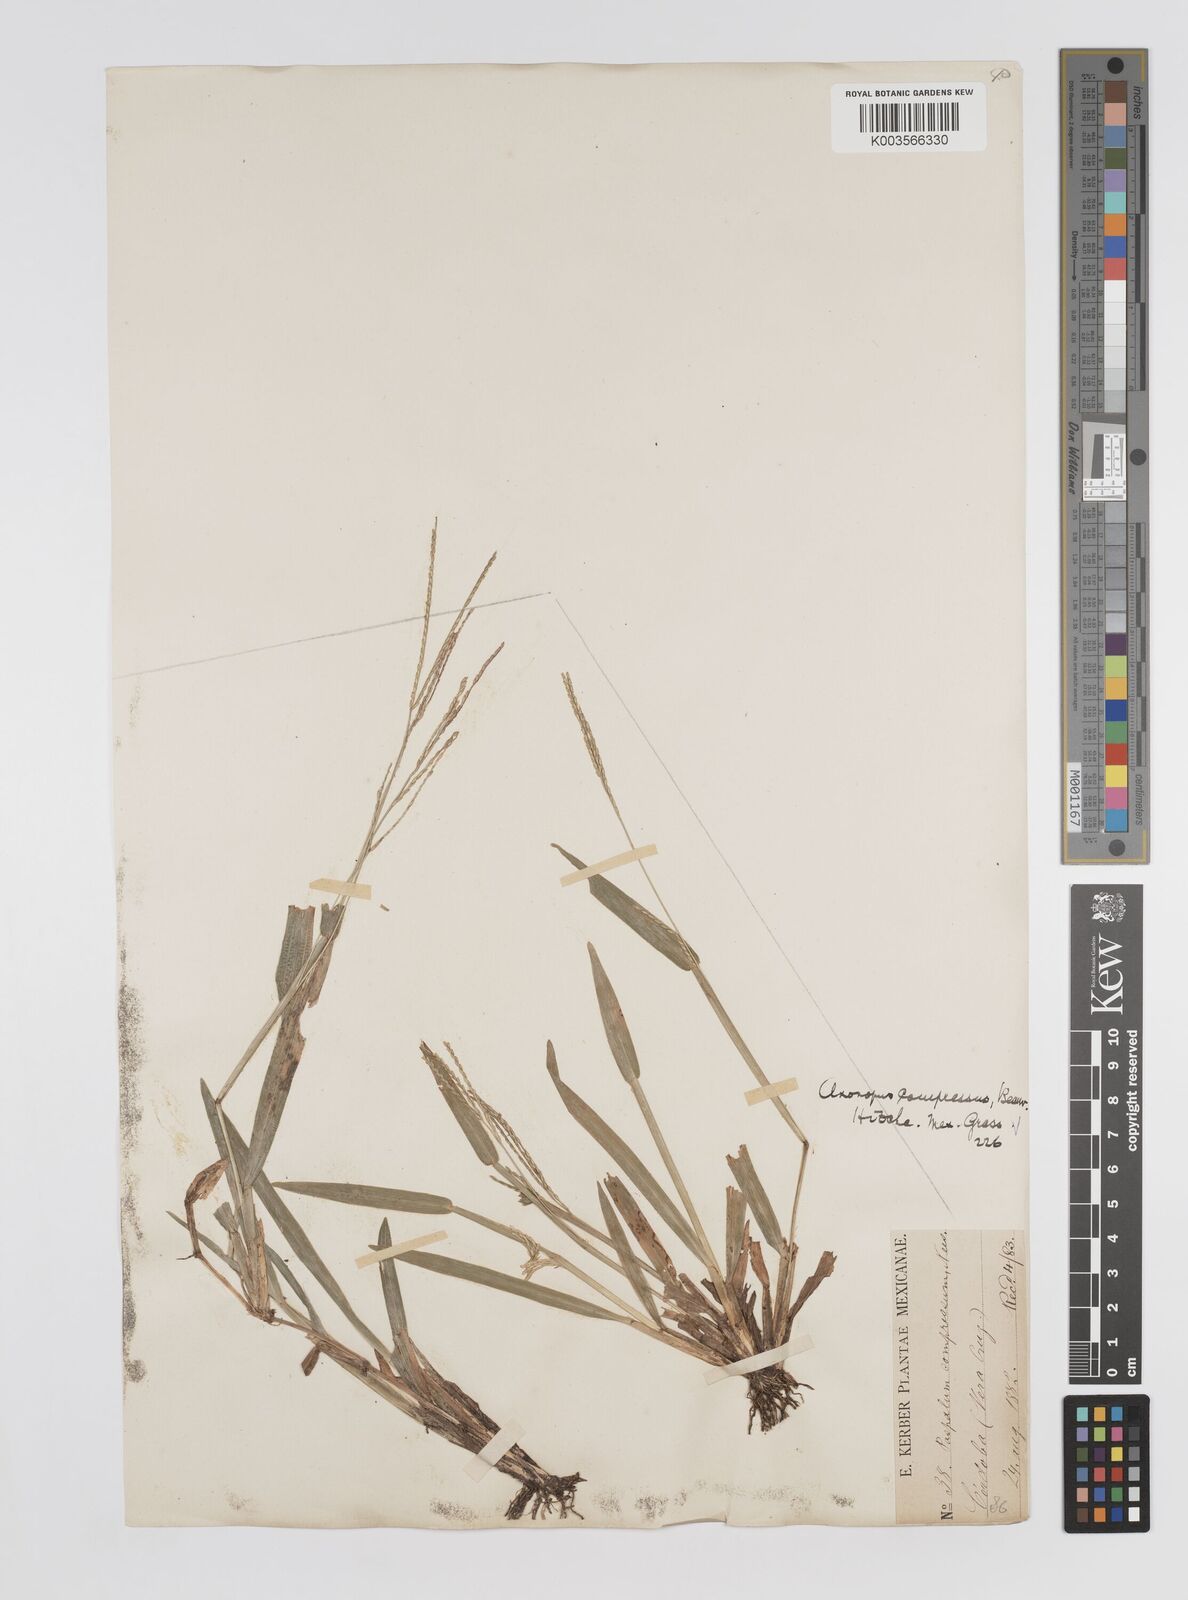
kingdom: Plantae
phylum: Tracheophyta
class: Liliopsida
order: Poales
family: Poaceae
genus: Axonopus
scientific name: Axonopus compressus
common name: American carpet grass
